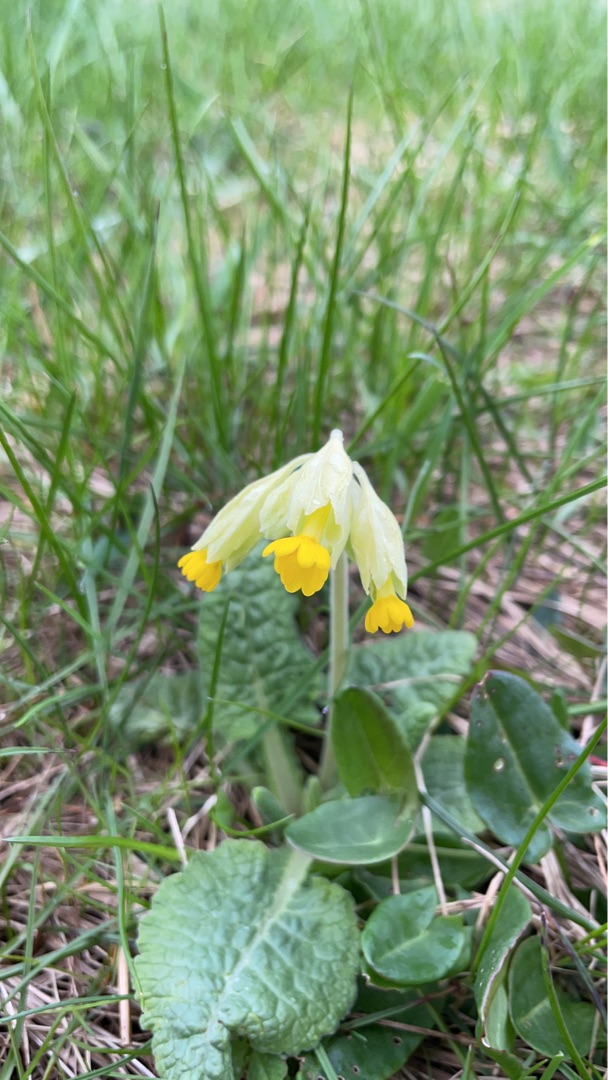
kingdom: Plantae
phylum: Tracheophyta
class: Magnoliopsida
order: Ericales
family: Primulaceae
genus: Primula
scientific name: Primula veris
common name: Hulkravet kodriver
